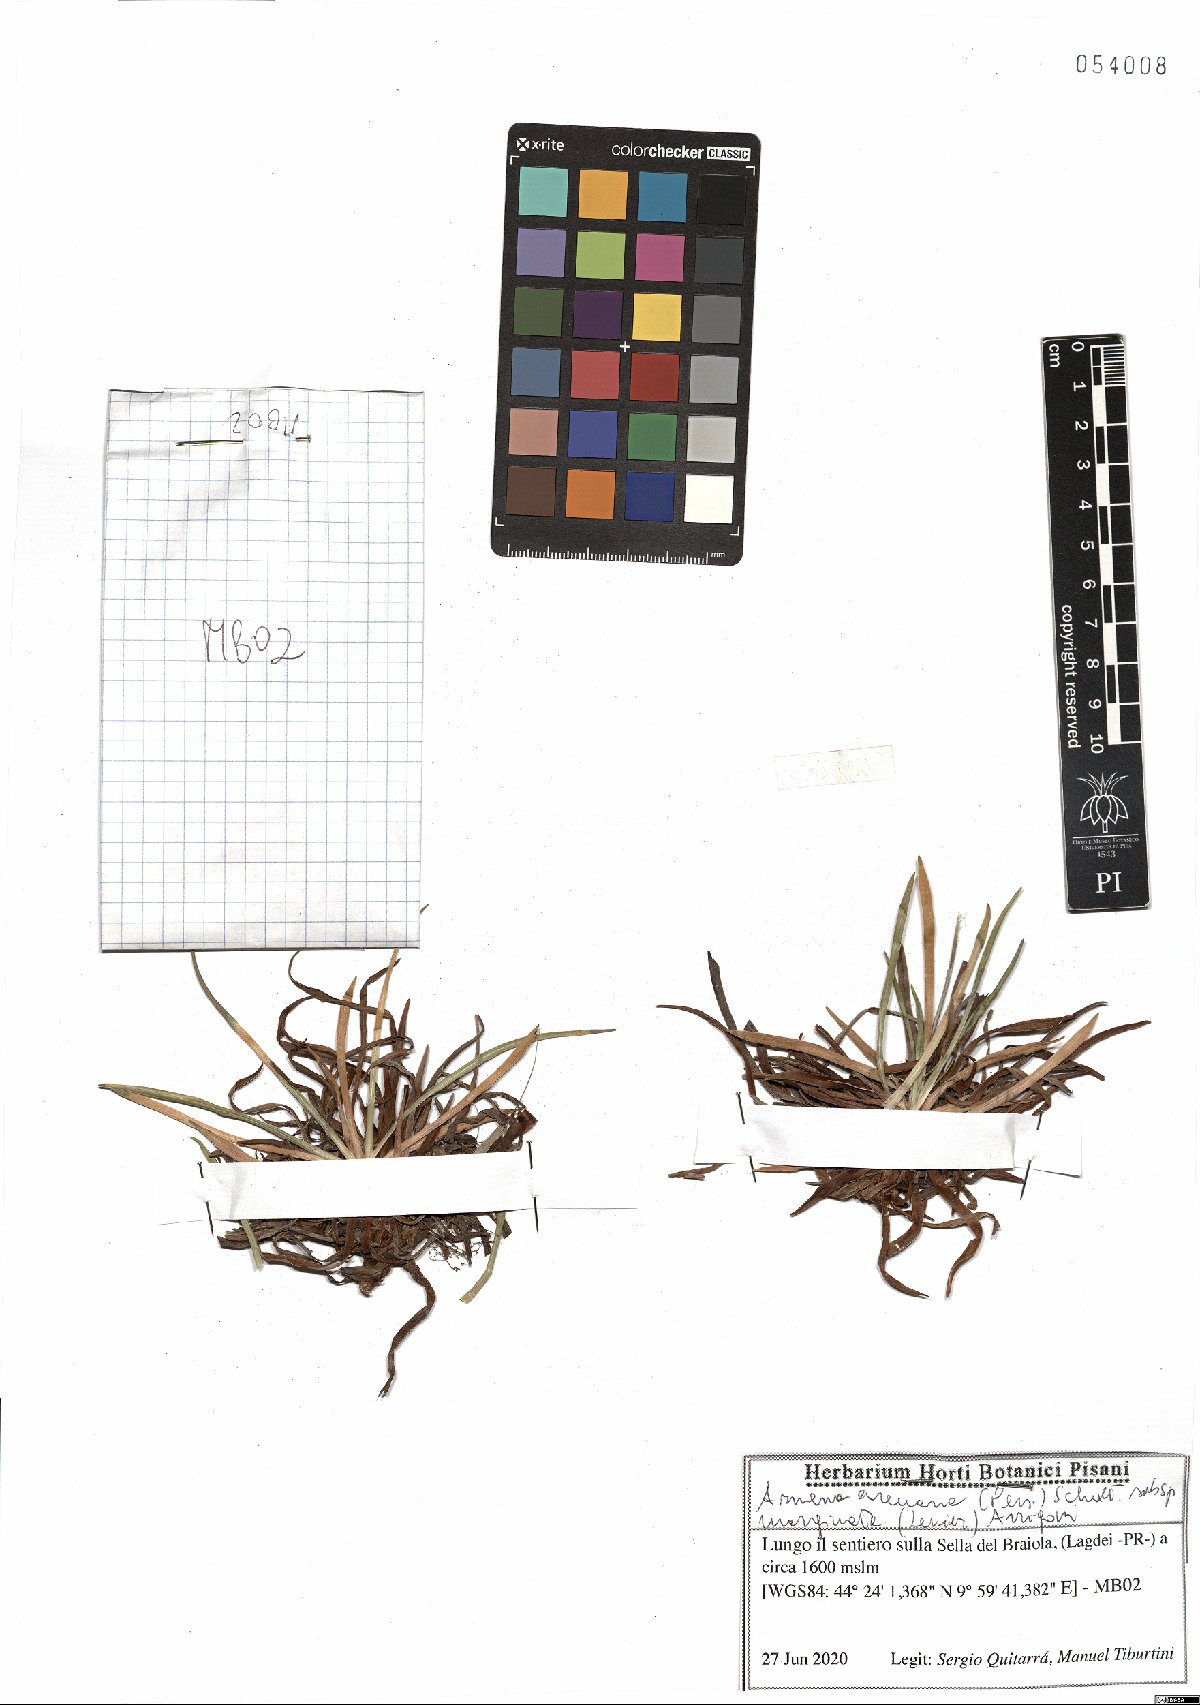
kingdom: Plantae
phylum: Tracheophyta
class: Magnoliopsida
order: Caryophyllales
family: Plumbaginaceae
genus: Armeria
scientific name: Armeria arenaria
